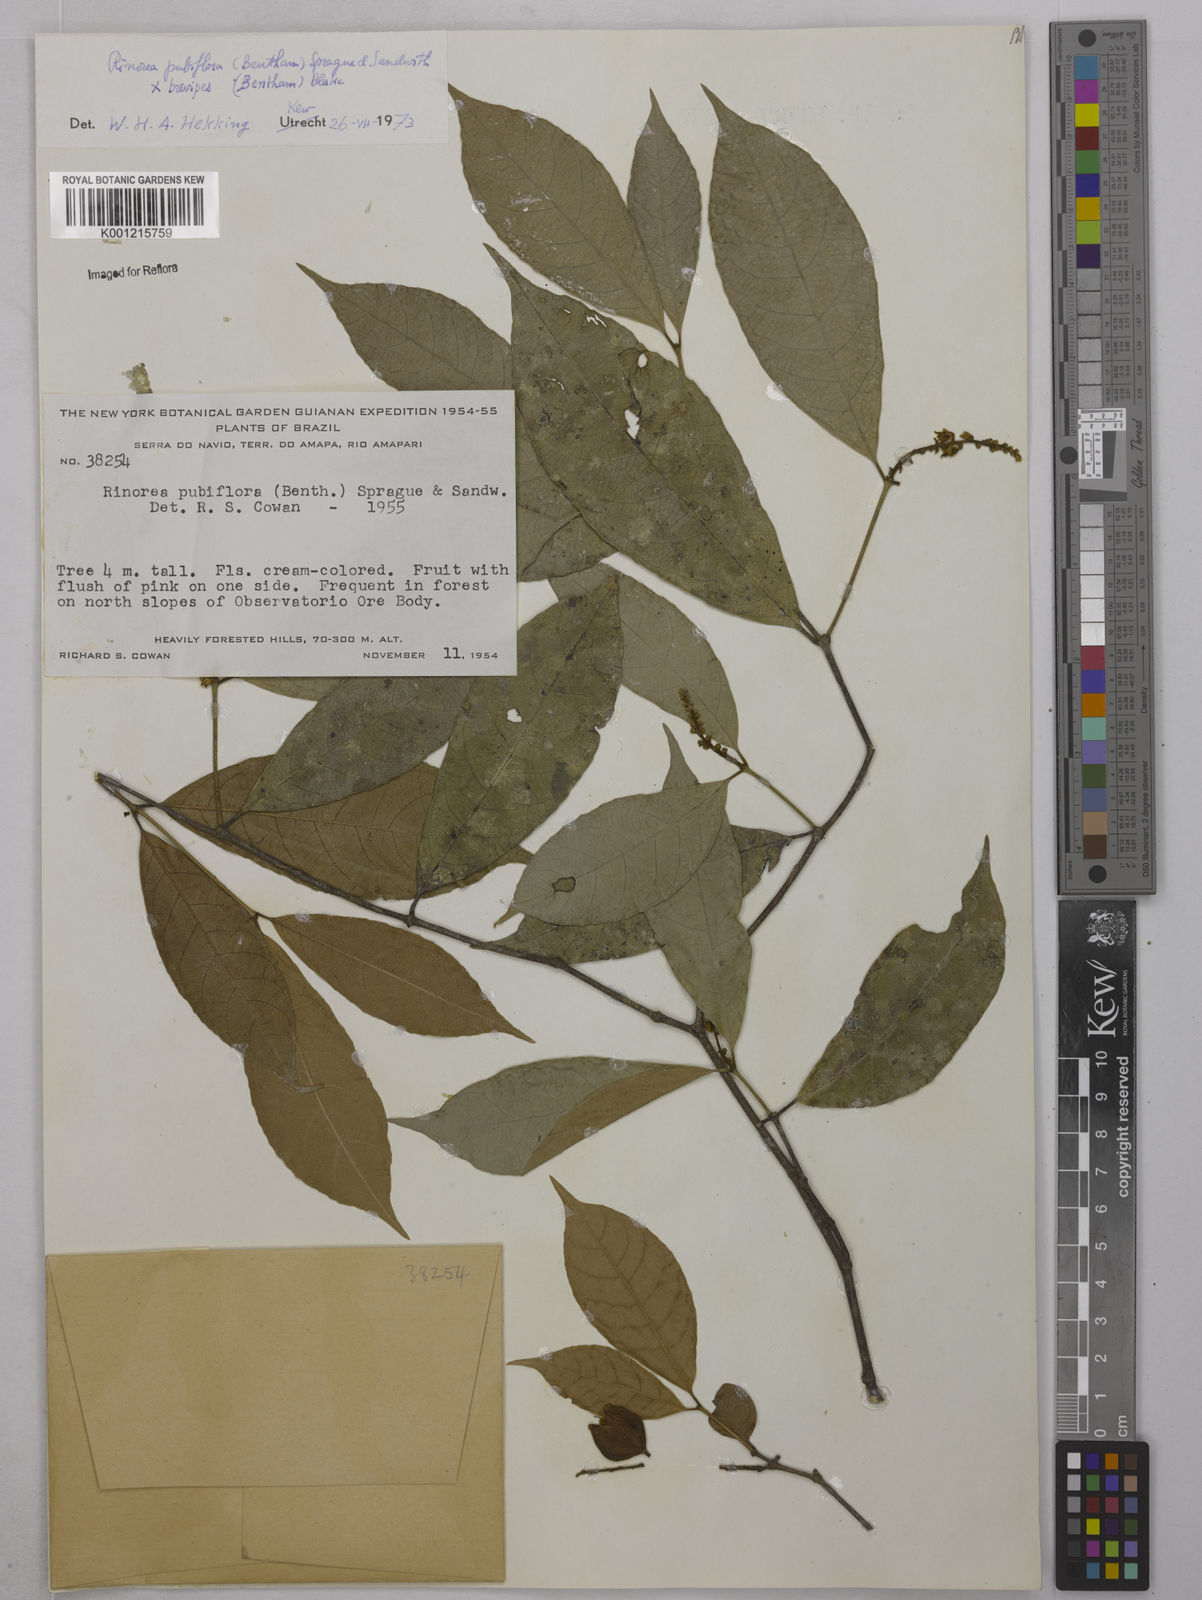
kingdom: Plantae
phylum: Tracheophyta
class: Magnoliopsida
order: Malpighiales
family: Violaceae
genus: Rinorea
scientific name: Rinorea
